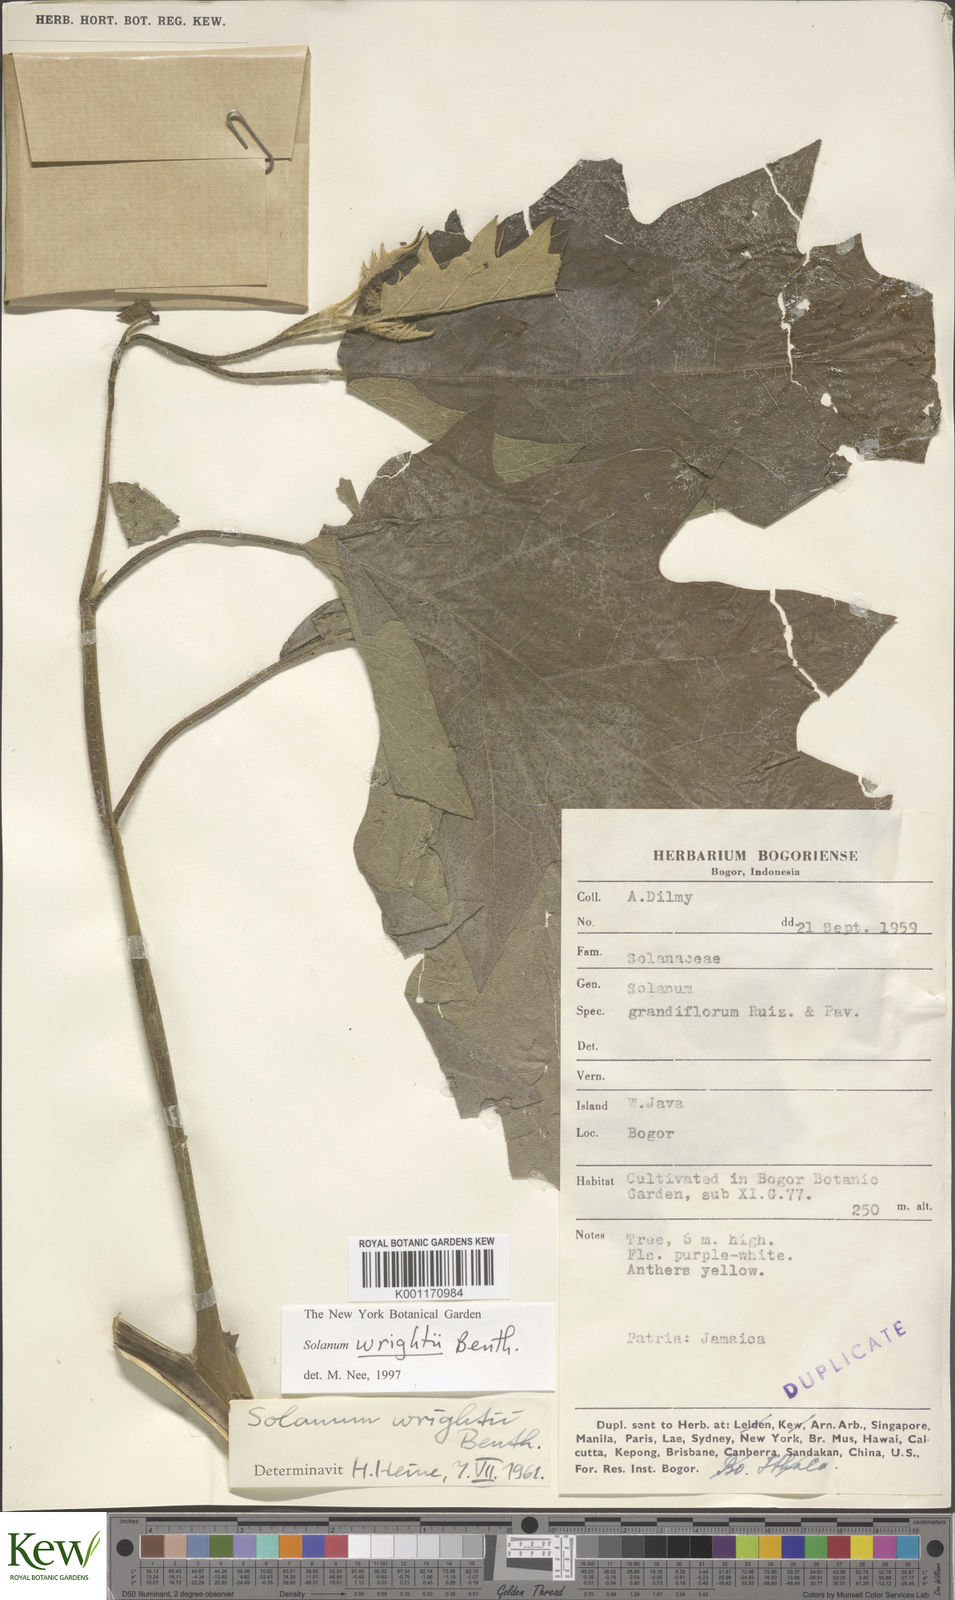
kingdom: Plantae
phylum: Tracheophyta
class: Magnoliopsida
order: Solanales
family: Solanaceae
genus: Solanum
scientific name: Solanum wrightii
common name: Brazilian potato-tree
